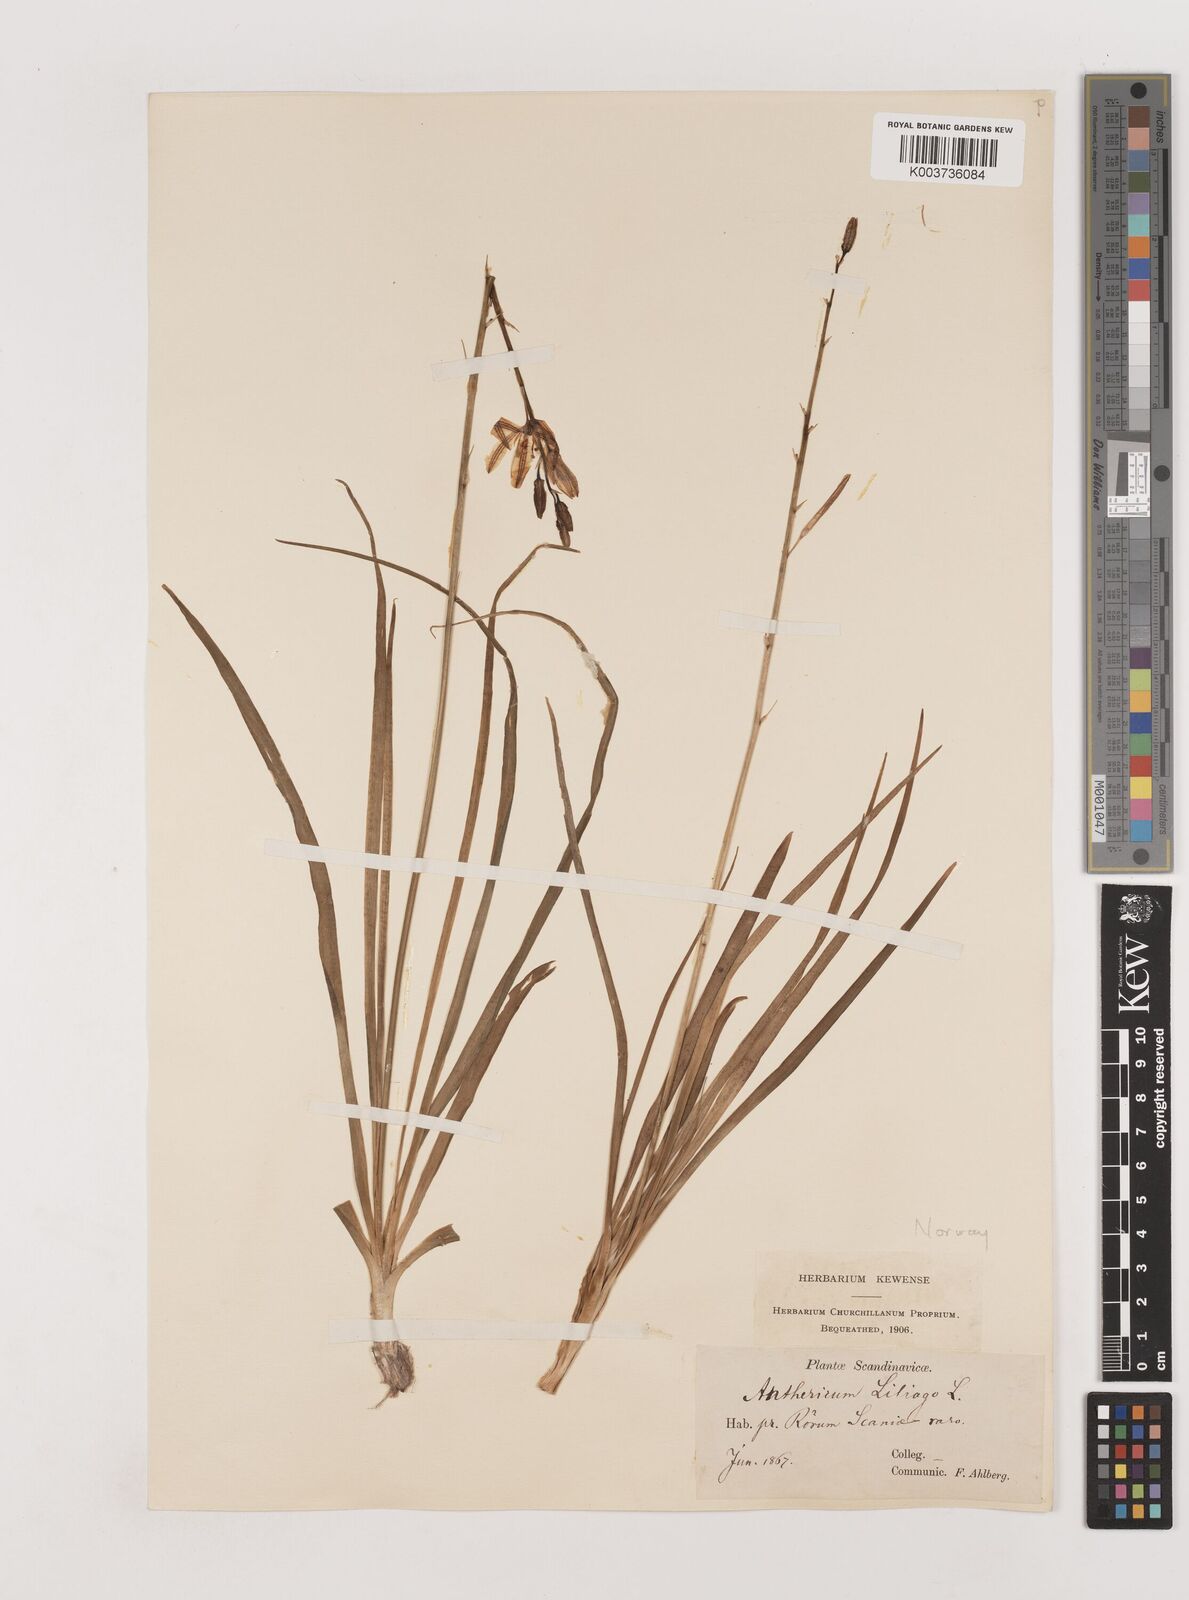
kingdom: Plantae
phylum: Tracheophyta
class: Liliopsida
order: Asparagales
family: Asparagaceae
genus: Anthericum
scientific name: Anthericum liliago
